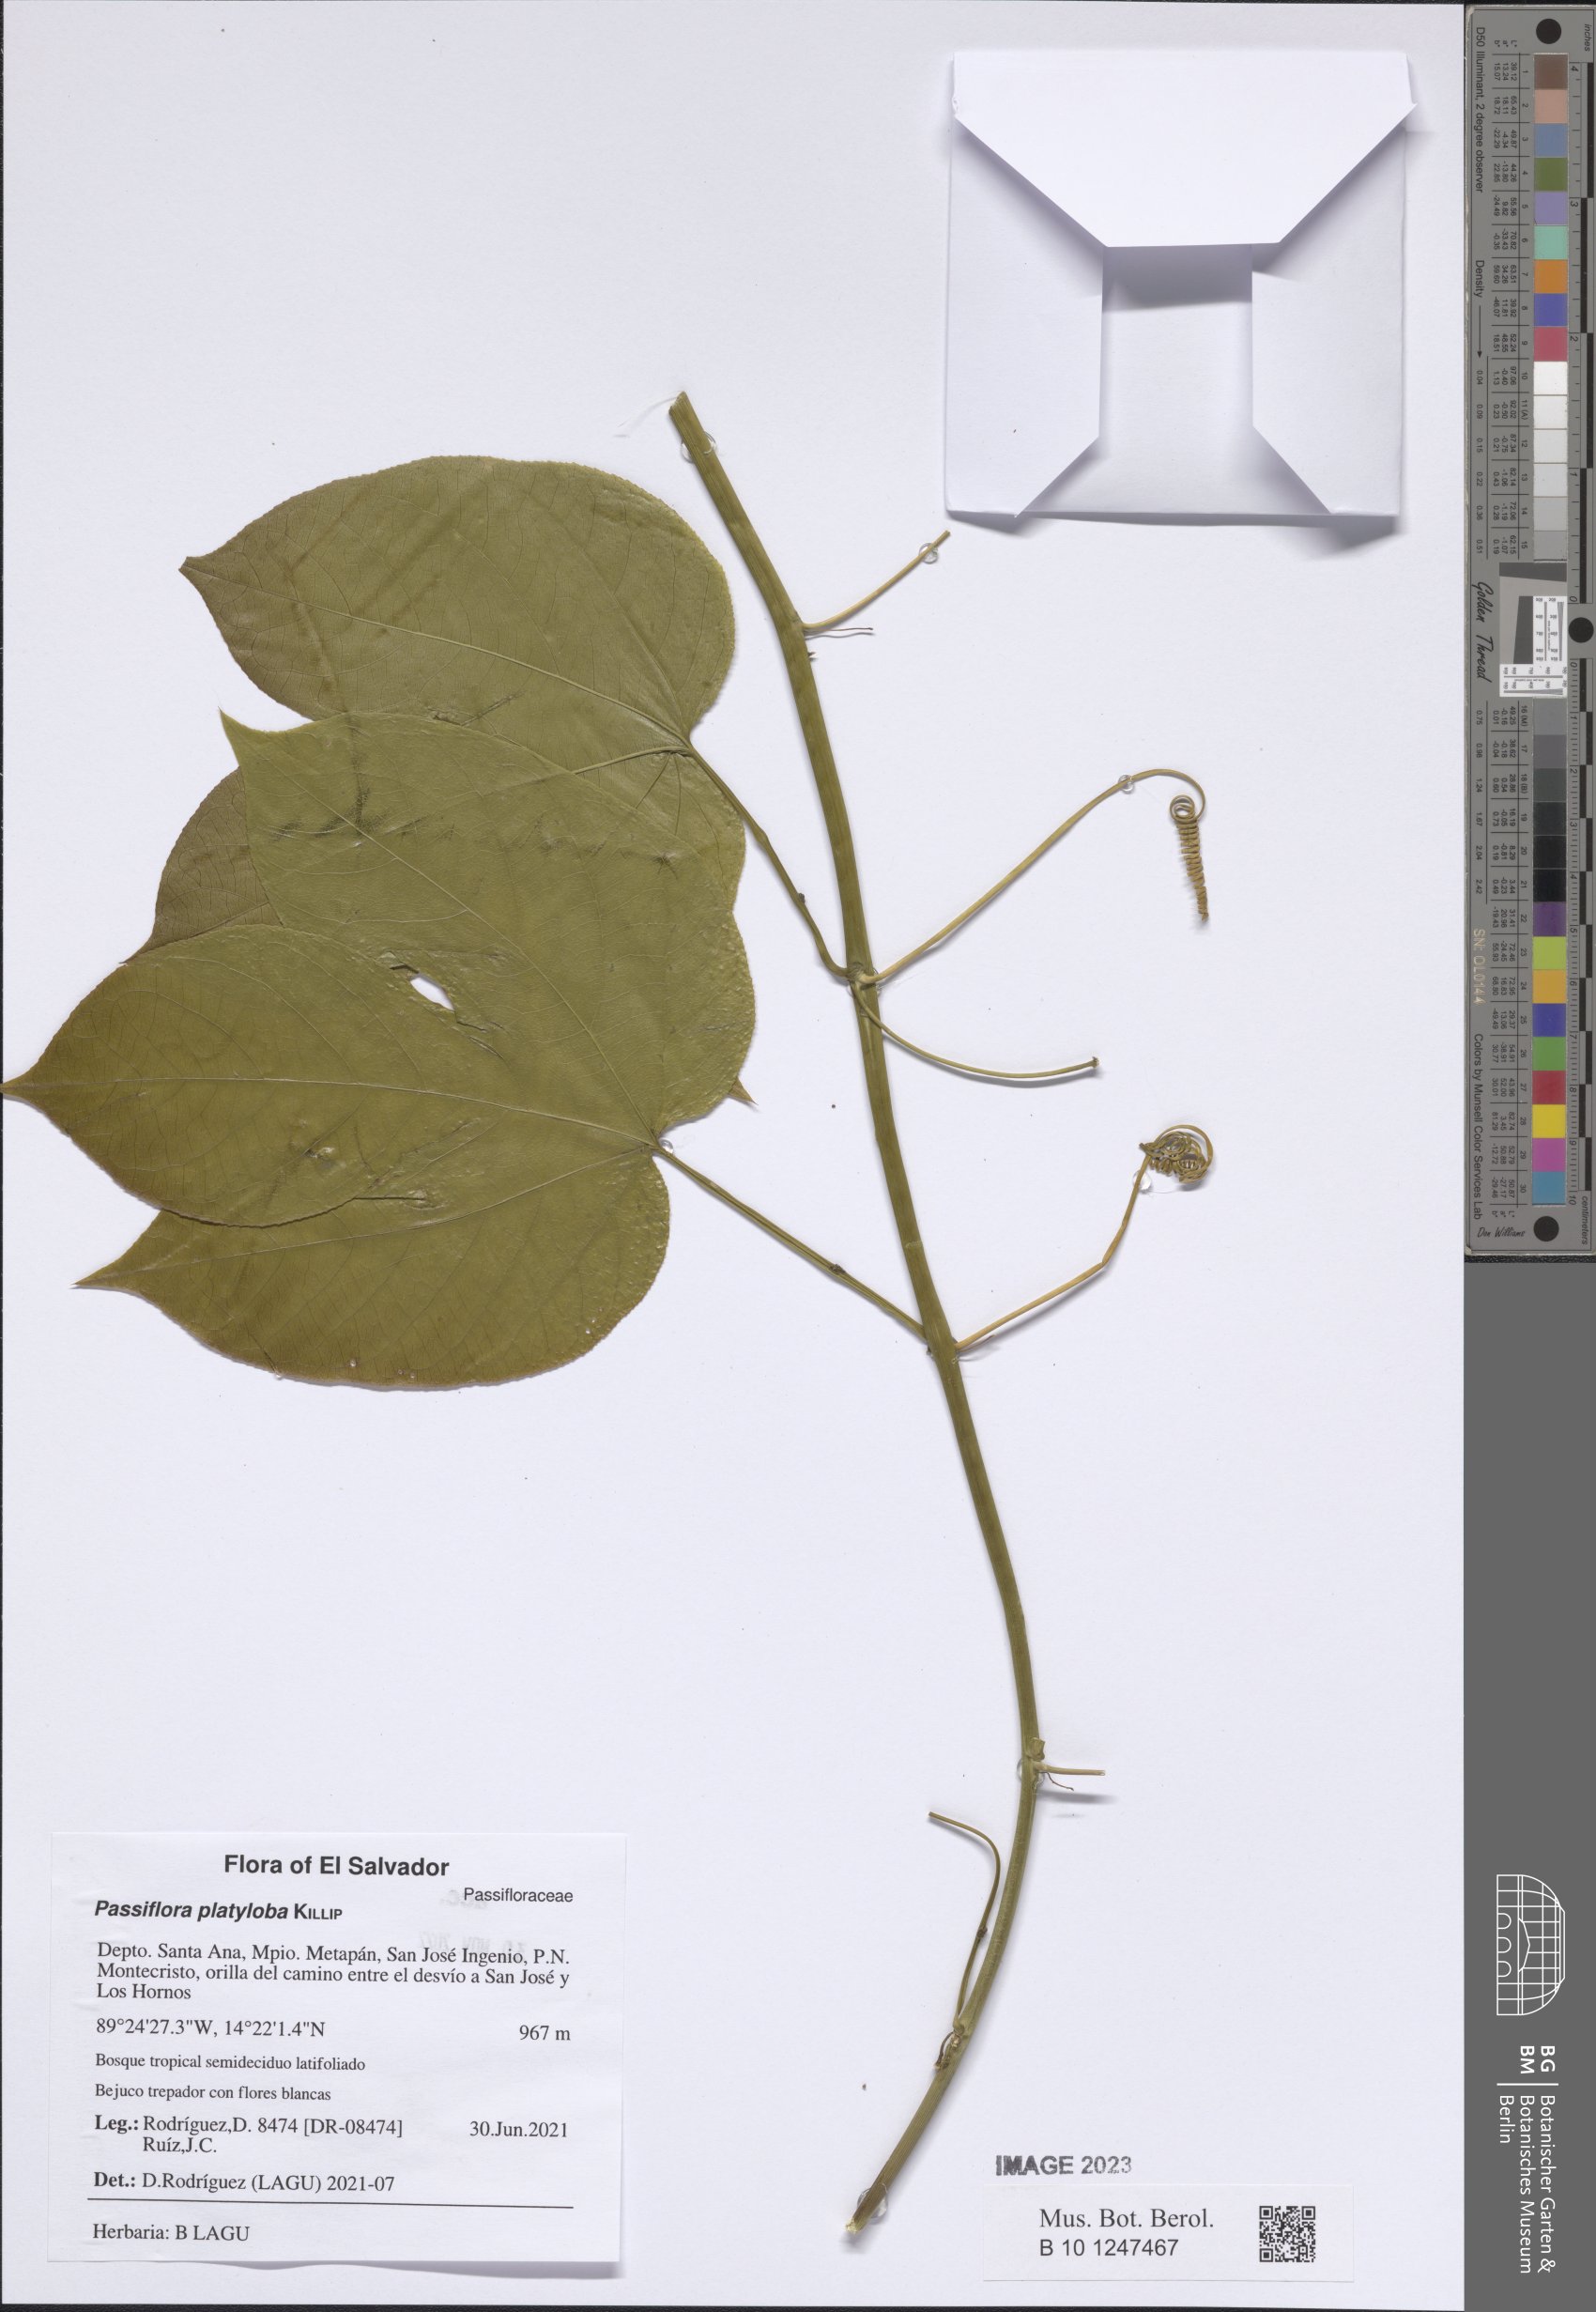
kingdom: Plantae
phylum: Tracheophyta
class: Magnoliopsida
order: Malpighiales
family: Passifloraceae
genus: Passiflora
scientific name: Passiflora platyloba
